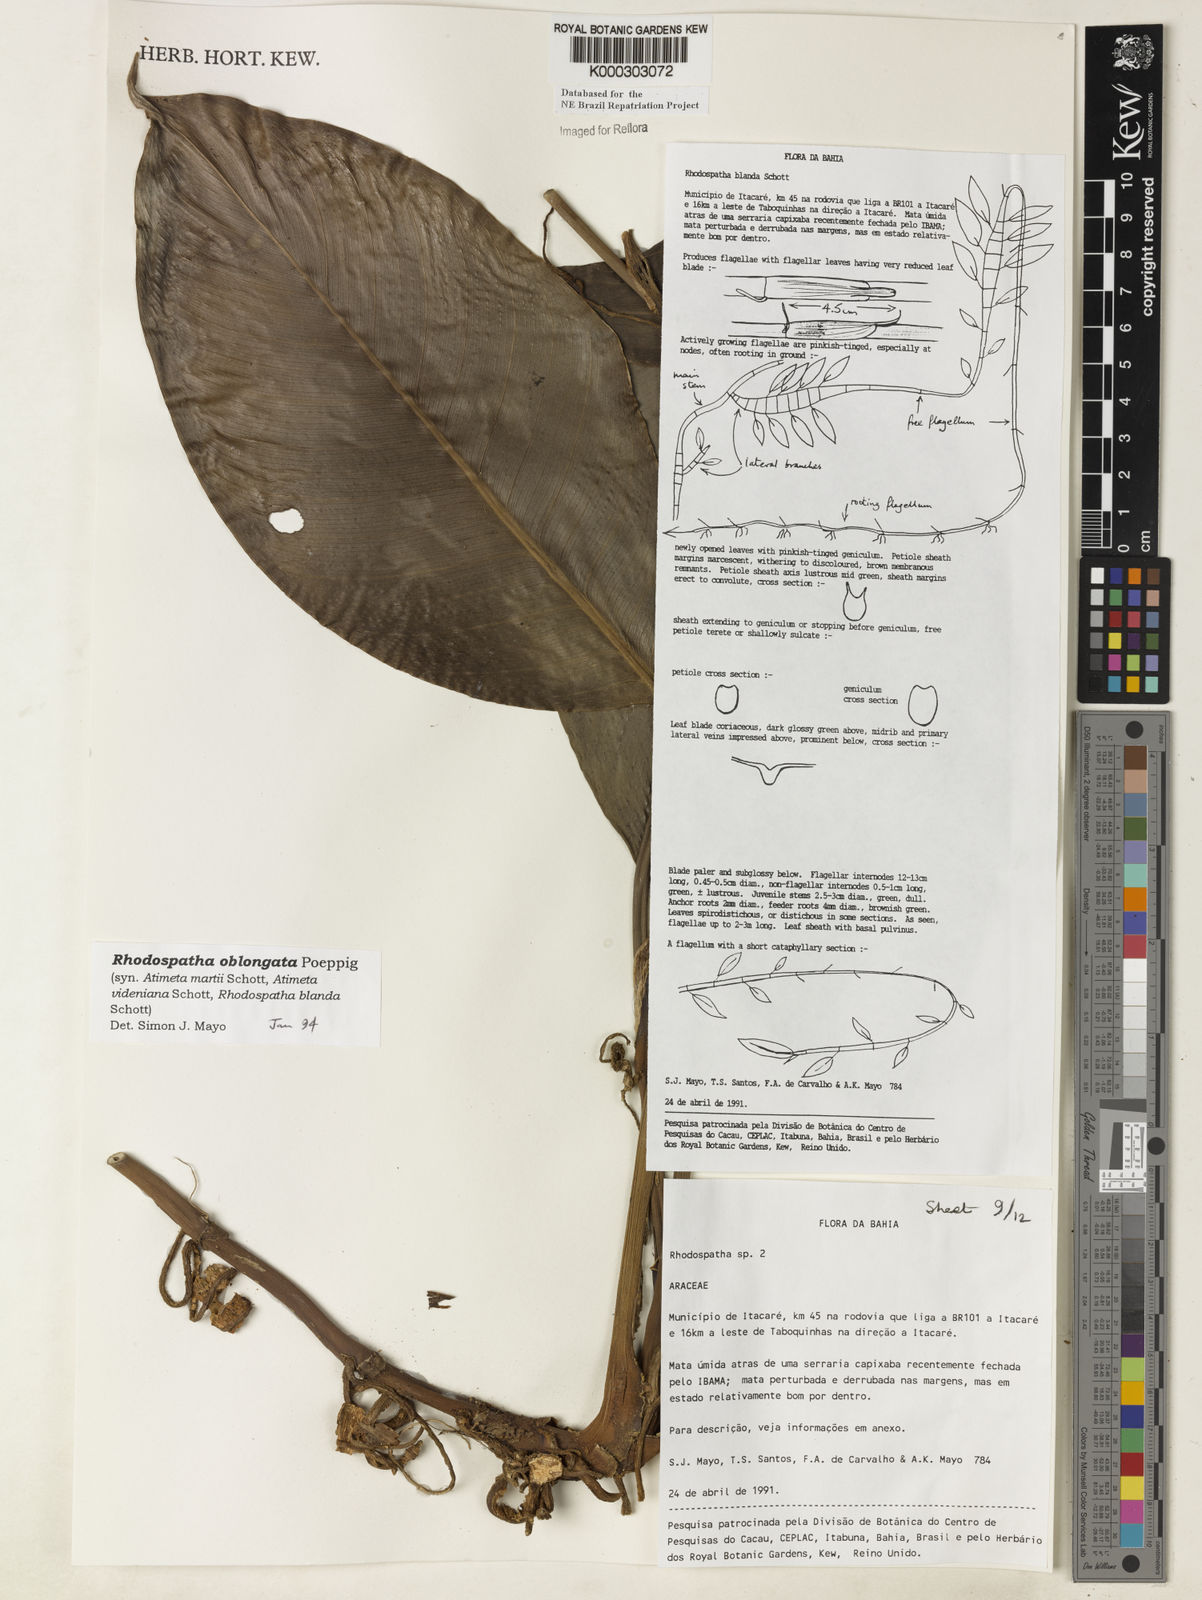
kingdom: Plantae
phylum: Tracheophyta
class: Liliopsida
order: Alismatales
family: Araceae
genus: Rhodospatha
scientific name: Rhodospatha oblongata
